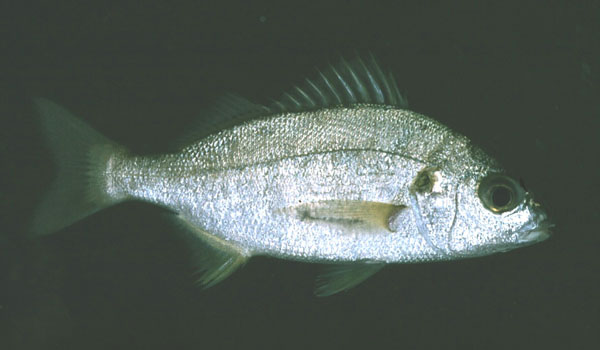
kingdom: Animalia
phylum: Chordata
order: Perciformes
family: Haemulidae
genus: Pomadasys
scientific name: Pomadasys olivaceus
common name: Olive grunt
